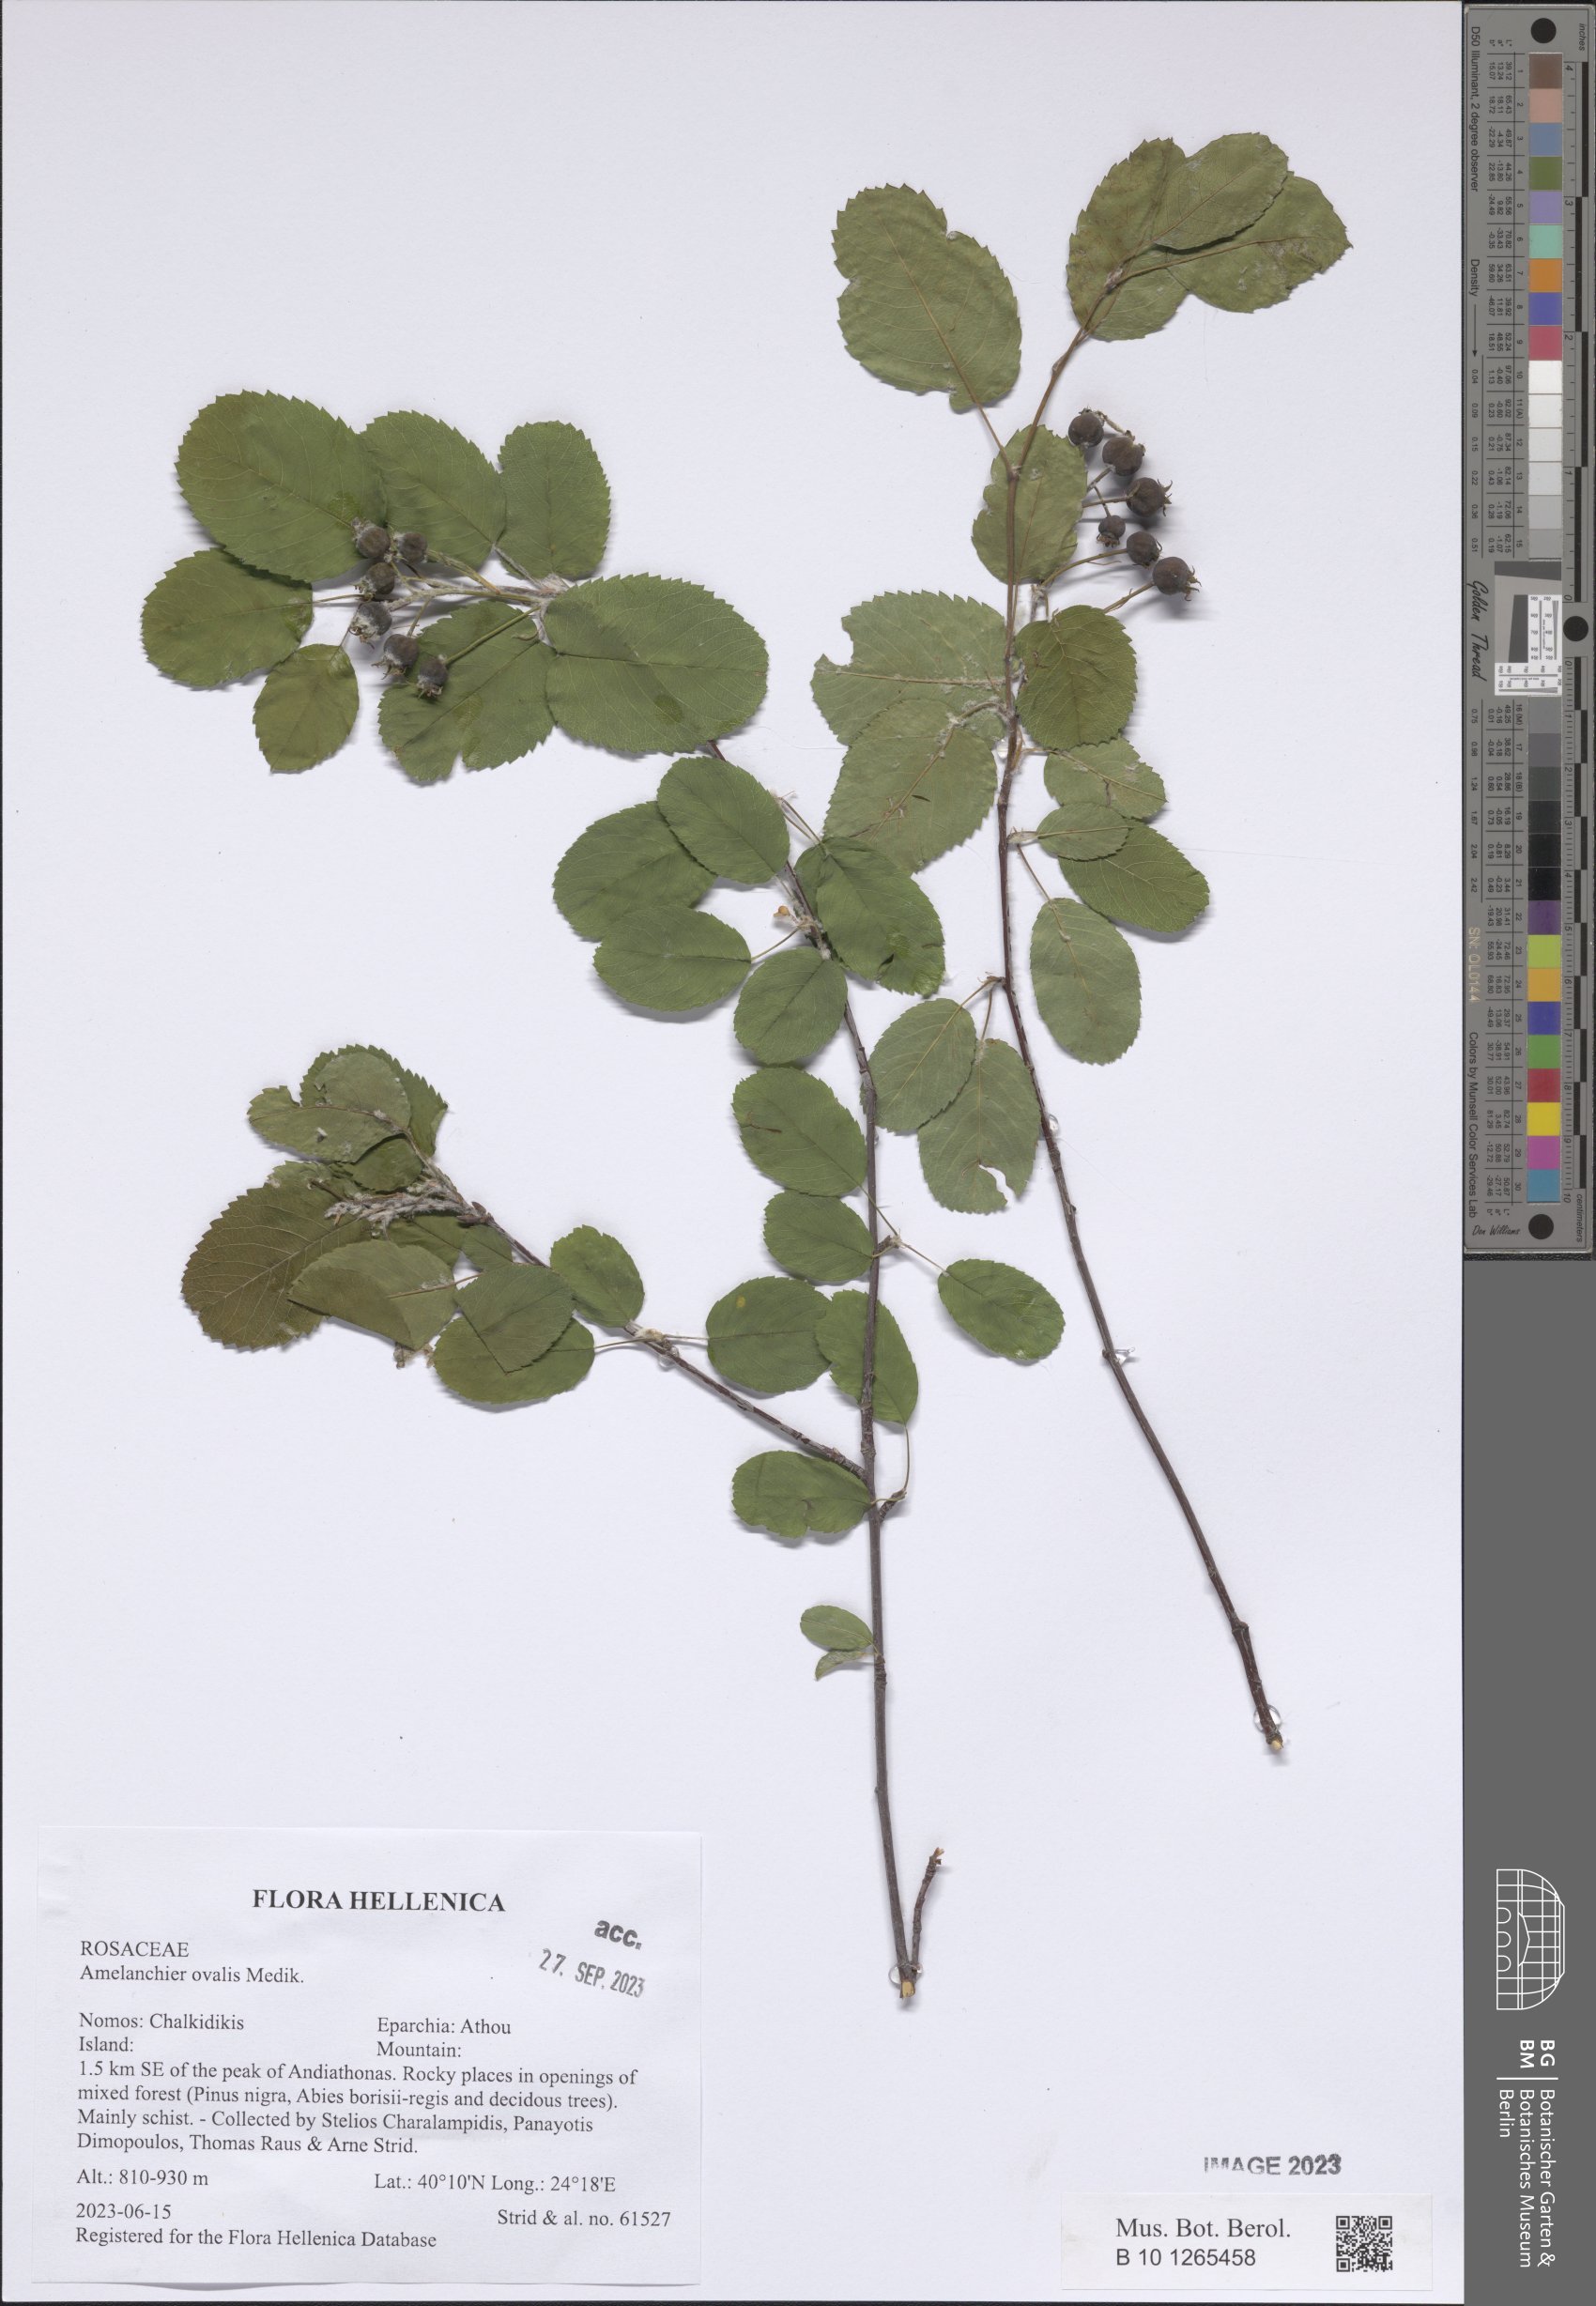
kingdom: Plantae
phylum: Tracheophyta
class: Magnoliopsida
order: Rosales
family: Rosaceae
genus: Amelanchier
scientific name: Amelanchier ovalis
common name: Serviceberry
